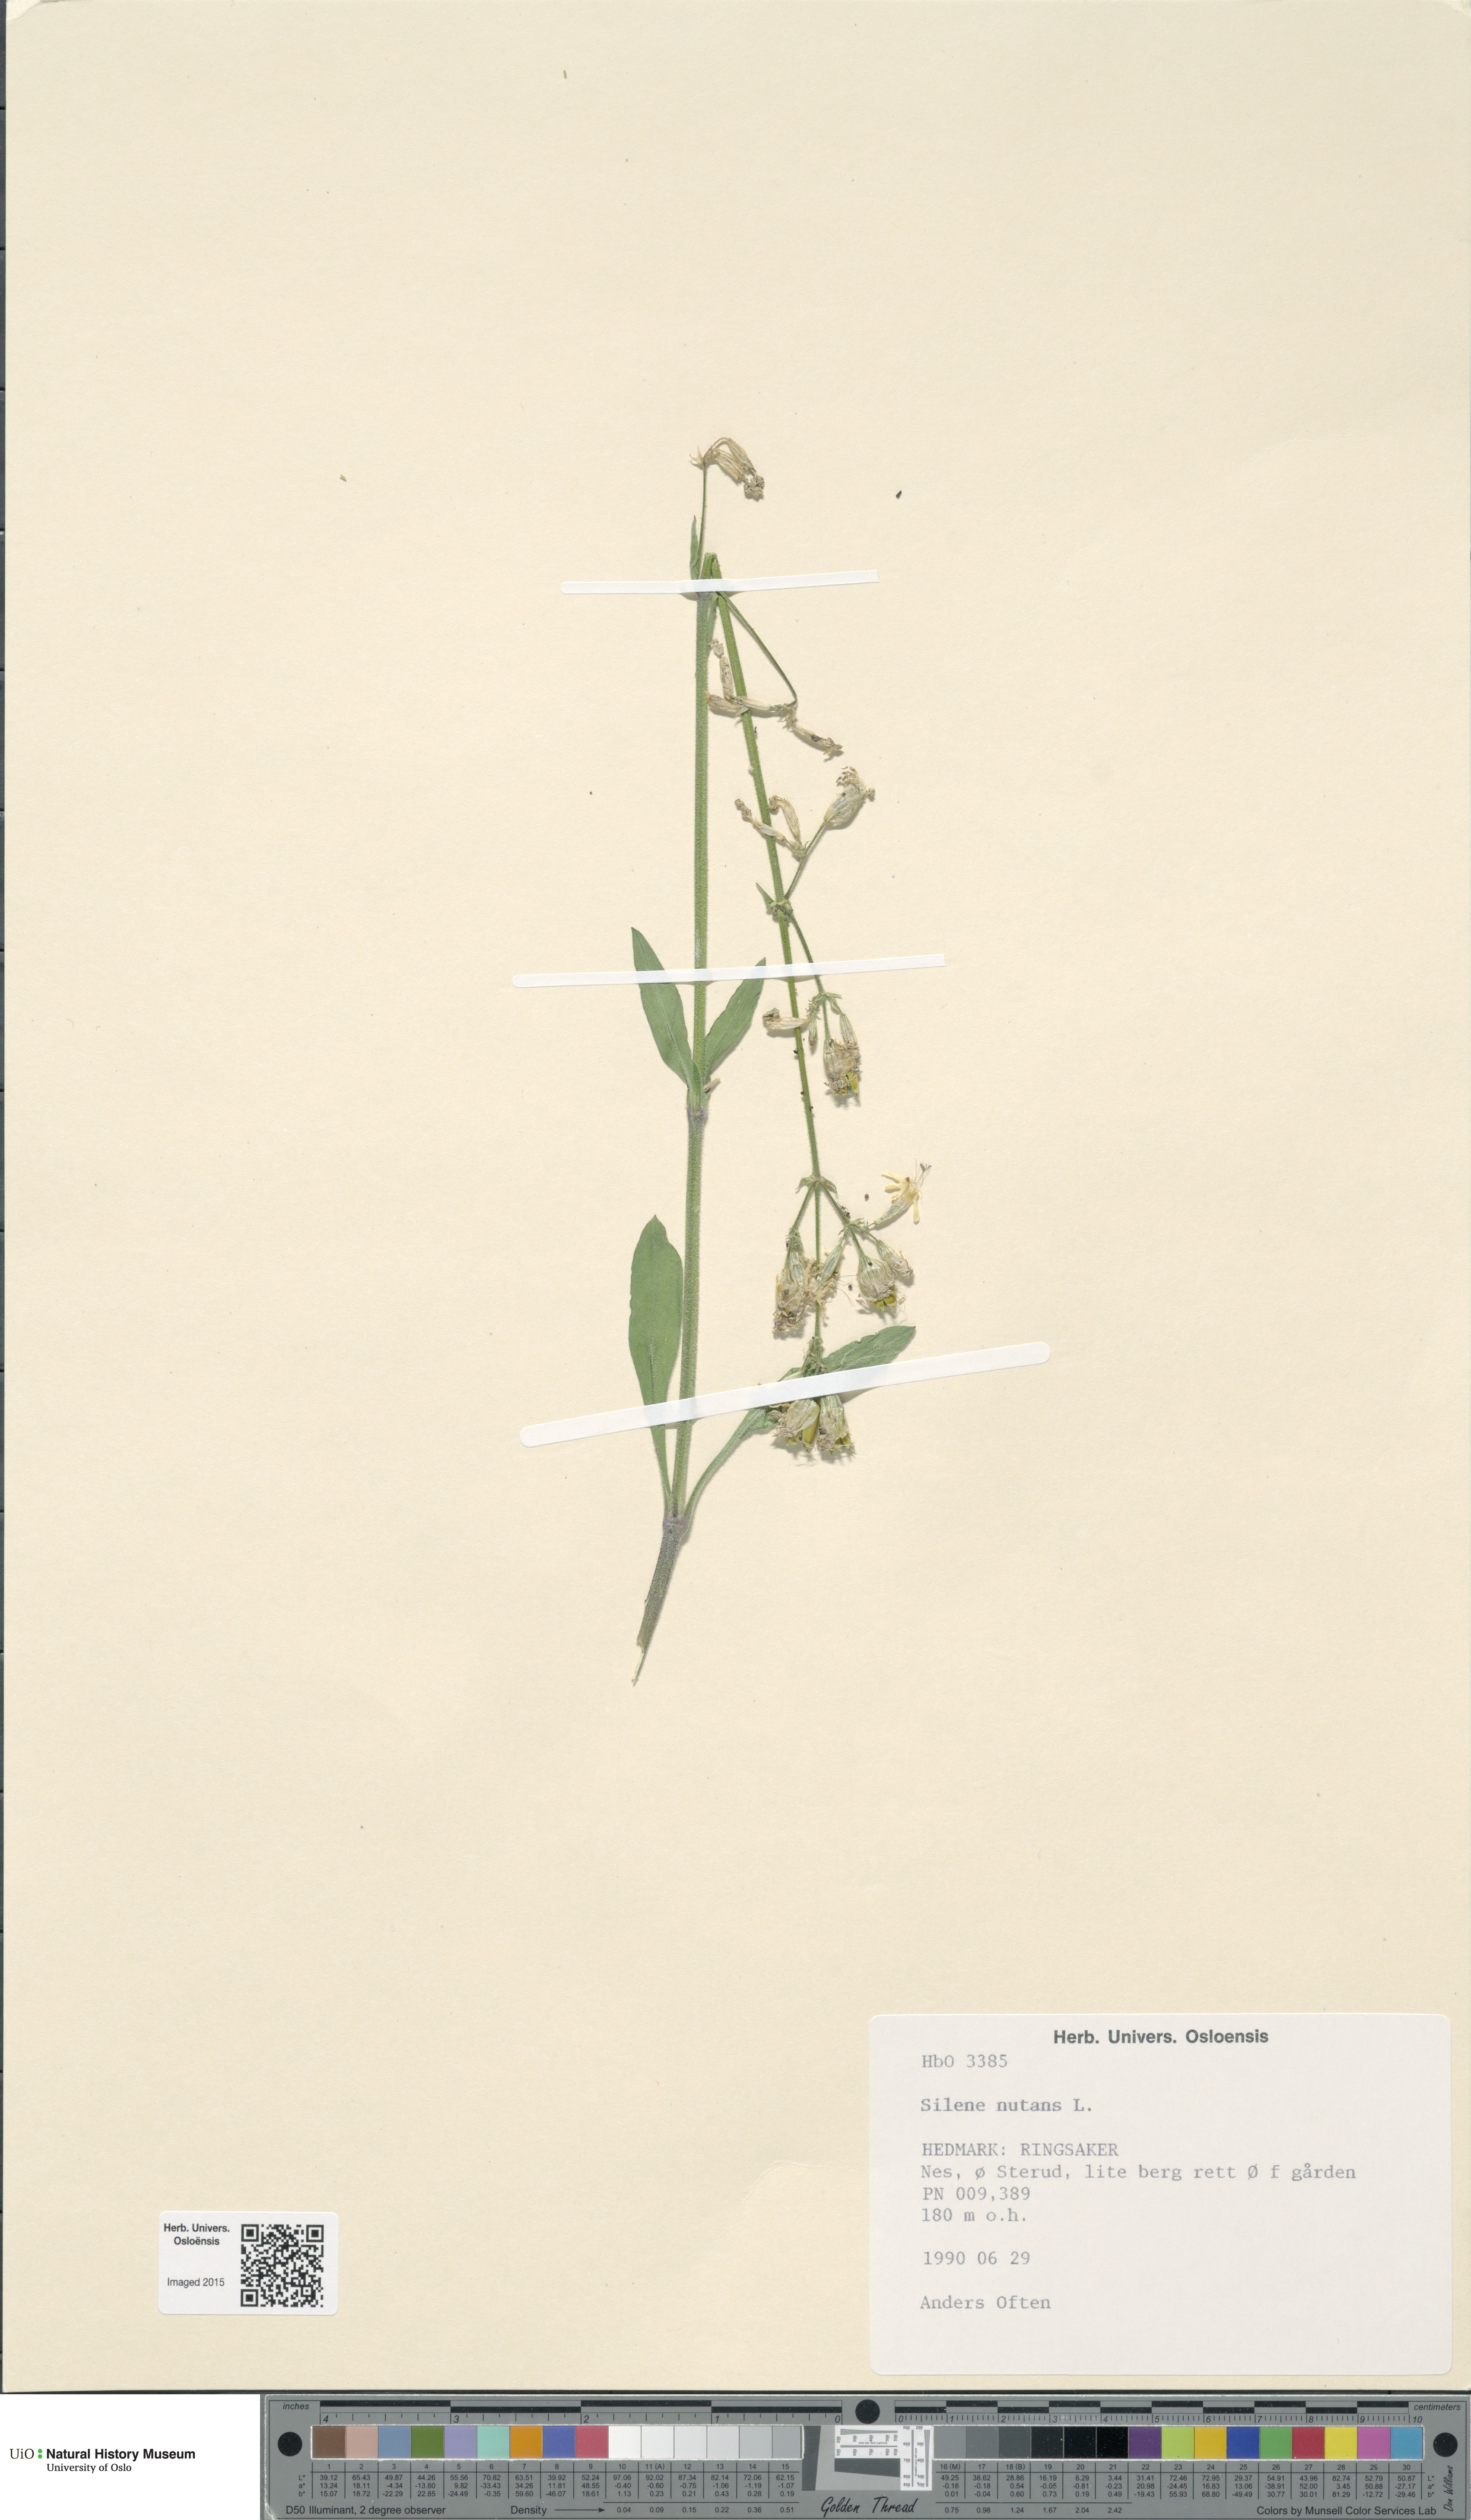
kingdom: Plantae
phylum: Tracheophyta
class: Magnoliopsida
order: Caryophyllales
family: Caryophyllaceae
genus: Silene
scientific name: Silene nutans
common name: Nottingham catchfly
